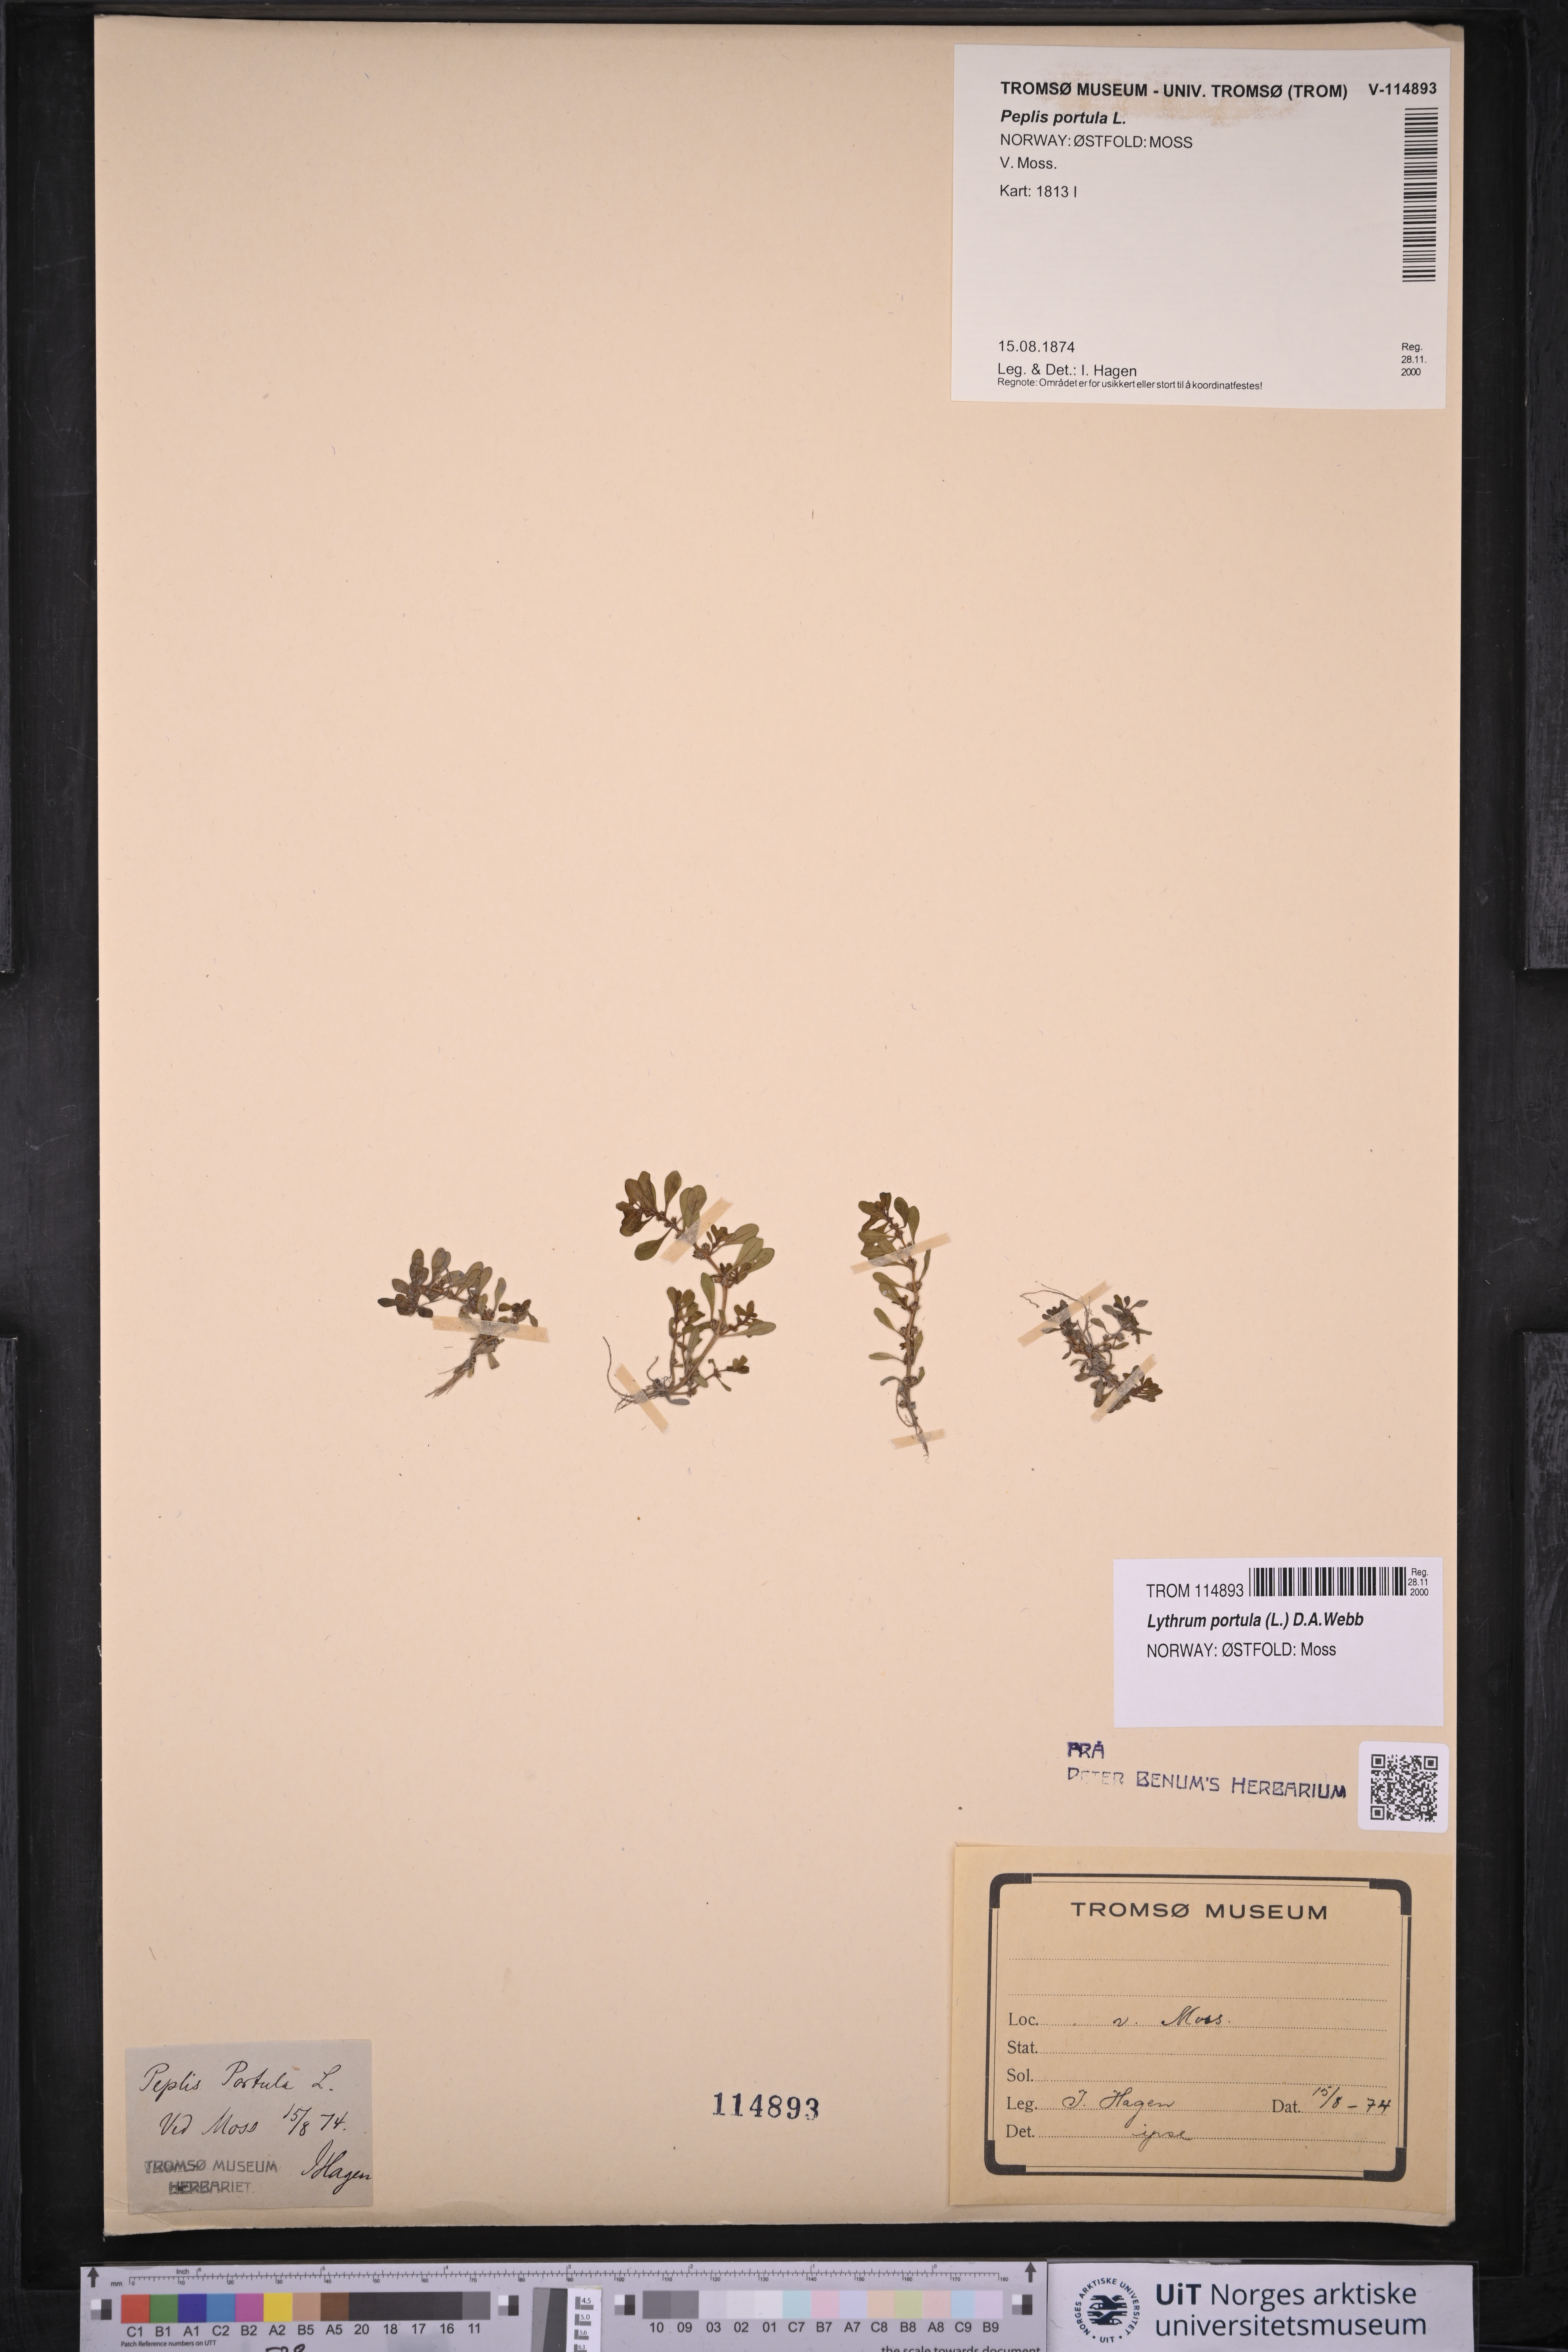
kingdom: Plantae
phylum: Tracheophyta
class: Magnoliopsida
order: Myrtales
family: Lythraceae
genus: Lythrum
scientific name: Lythrum portula
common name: Water purslane
